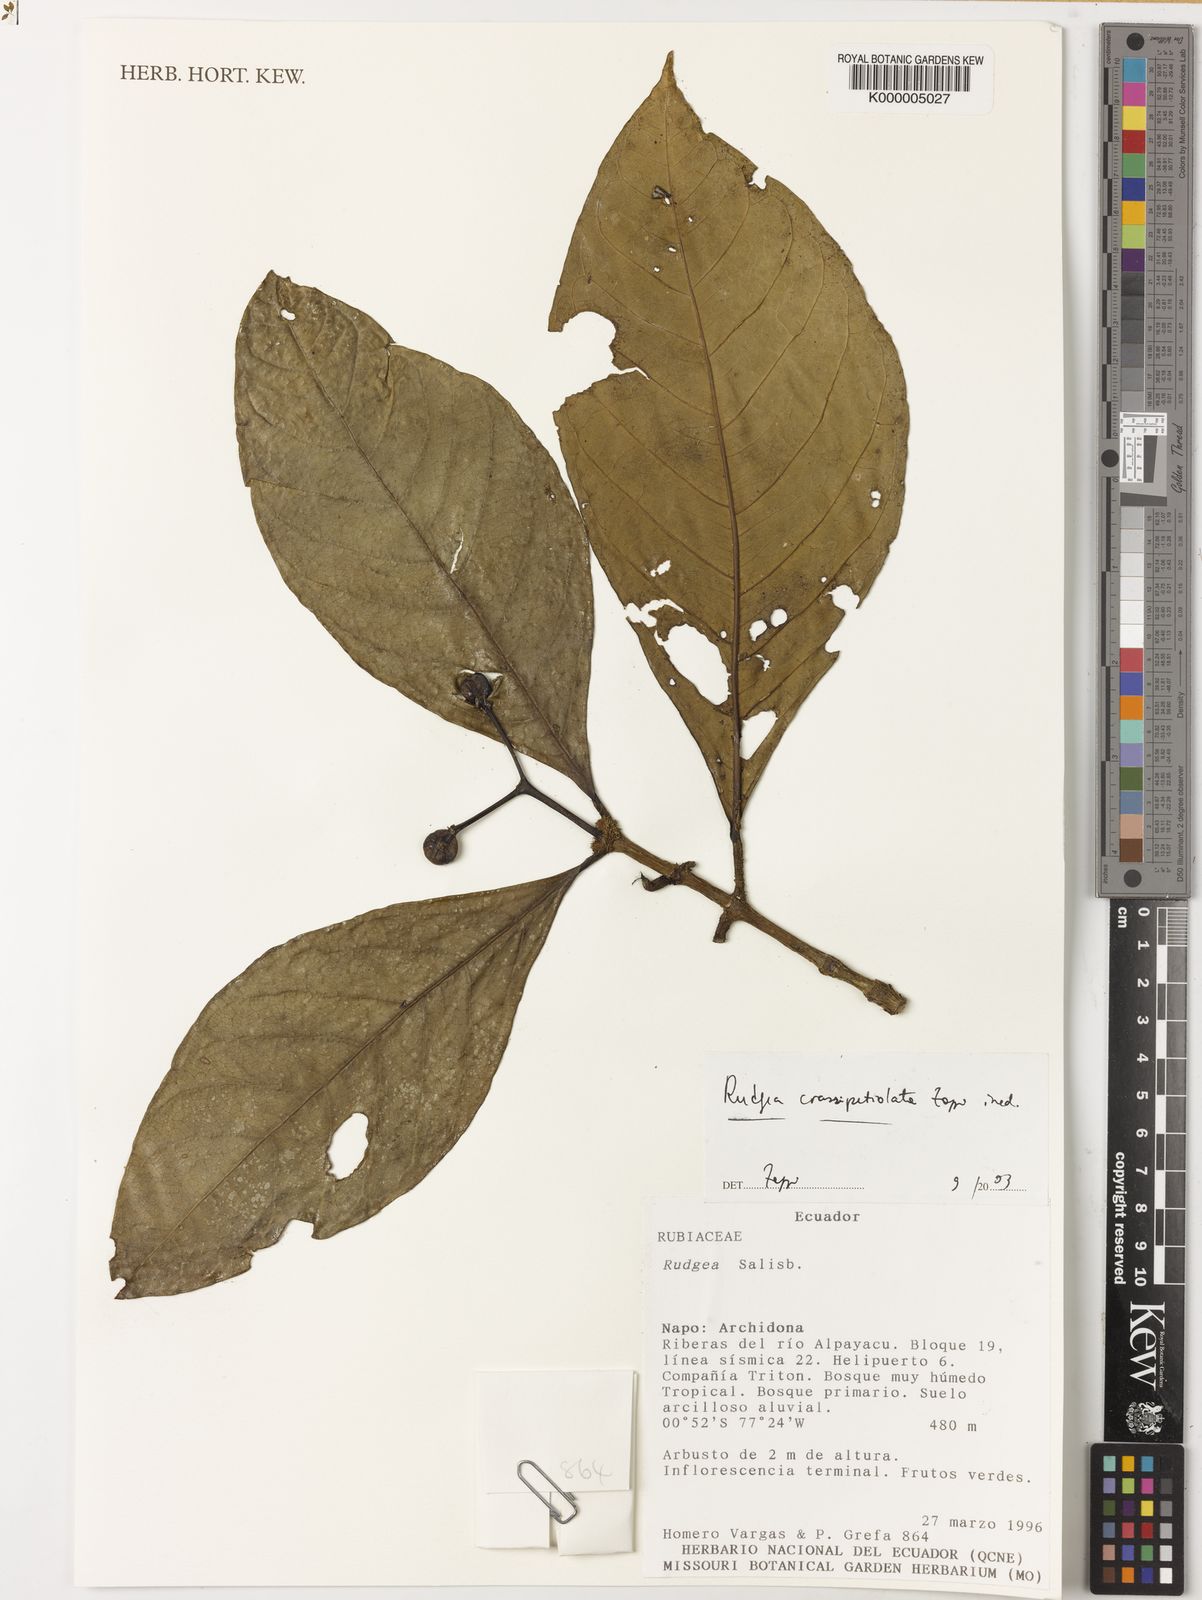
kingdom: Plantae
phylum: Tracheophyta
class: Magnoliopsida
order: Gentianales
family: Rubiaceae
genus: Rudgea
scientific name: Rudgea crassipetiolata
